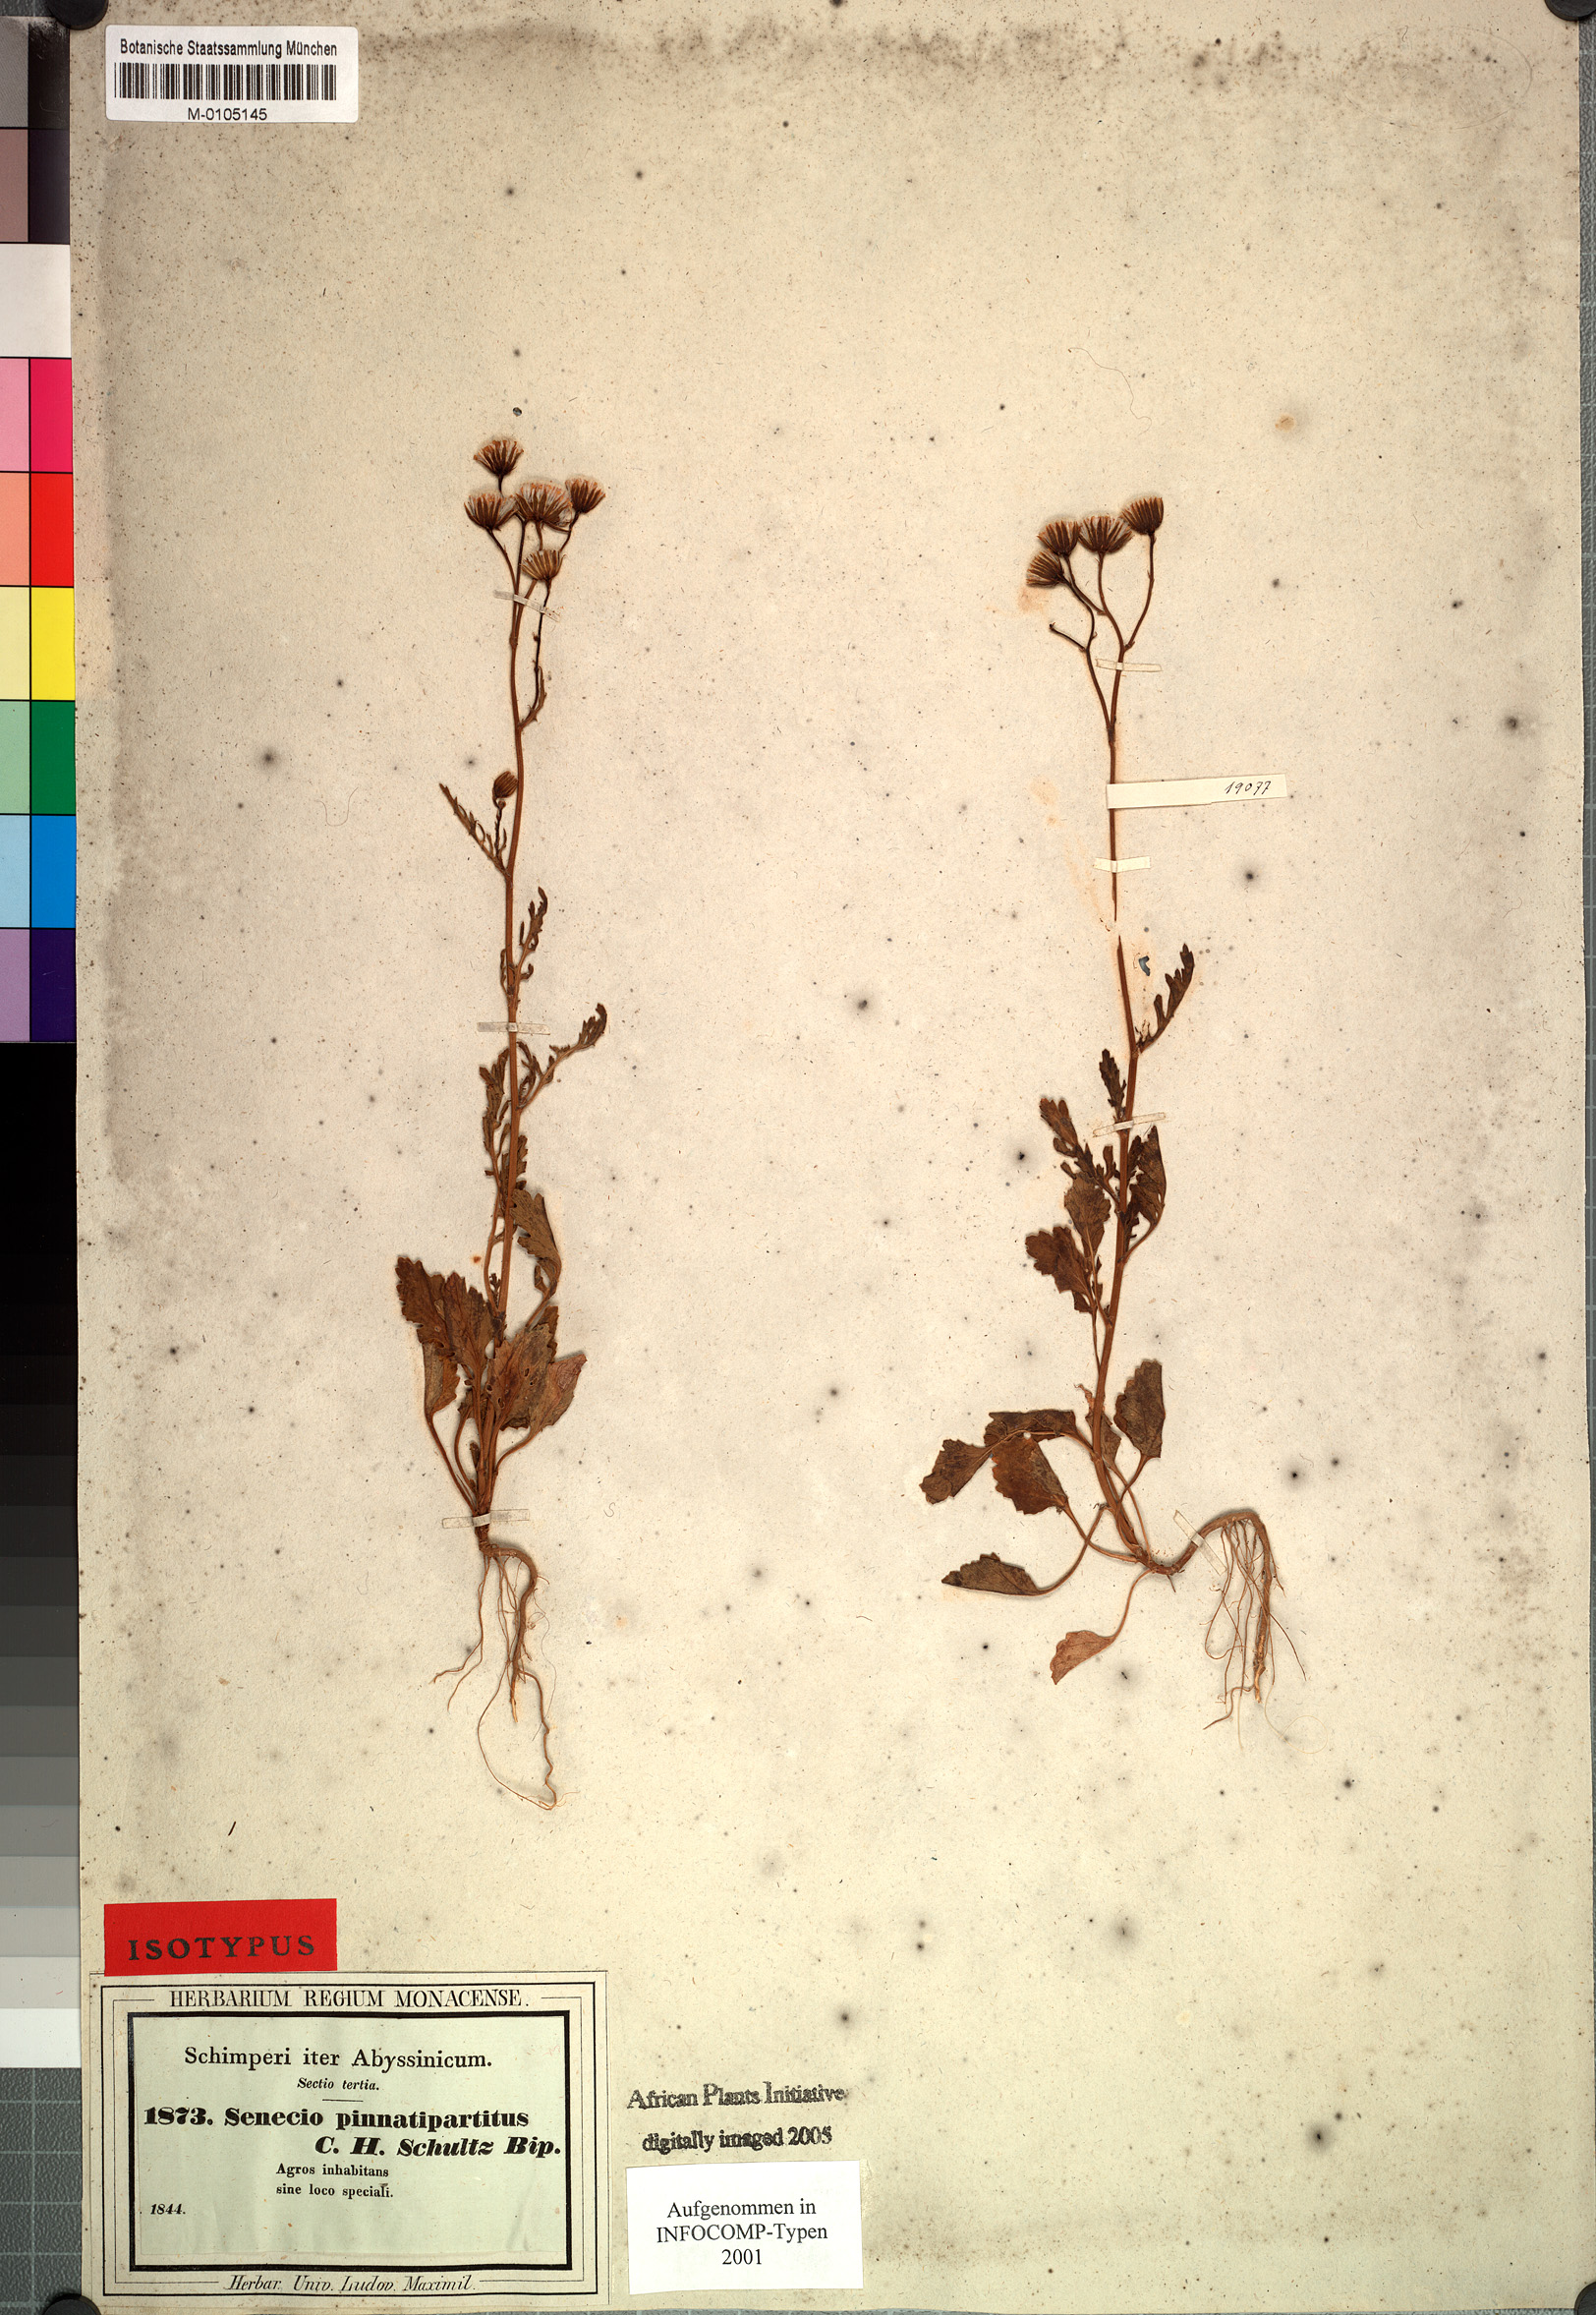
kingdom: Plantae
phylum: Tracheophyta
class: Magnoliopsida
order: Asterales
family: Asteraceae
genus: Senecio
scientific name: Senecio pinnatipartitus
